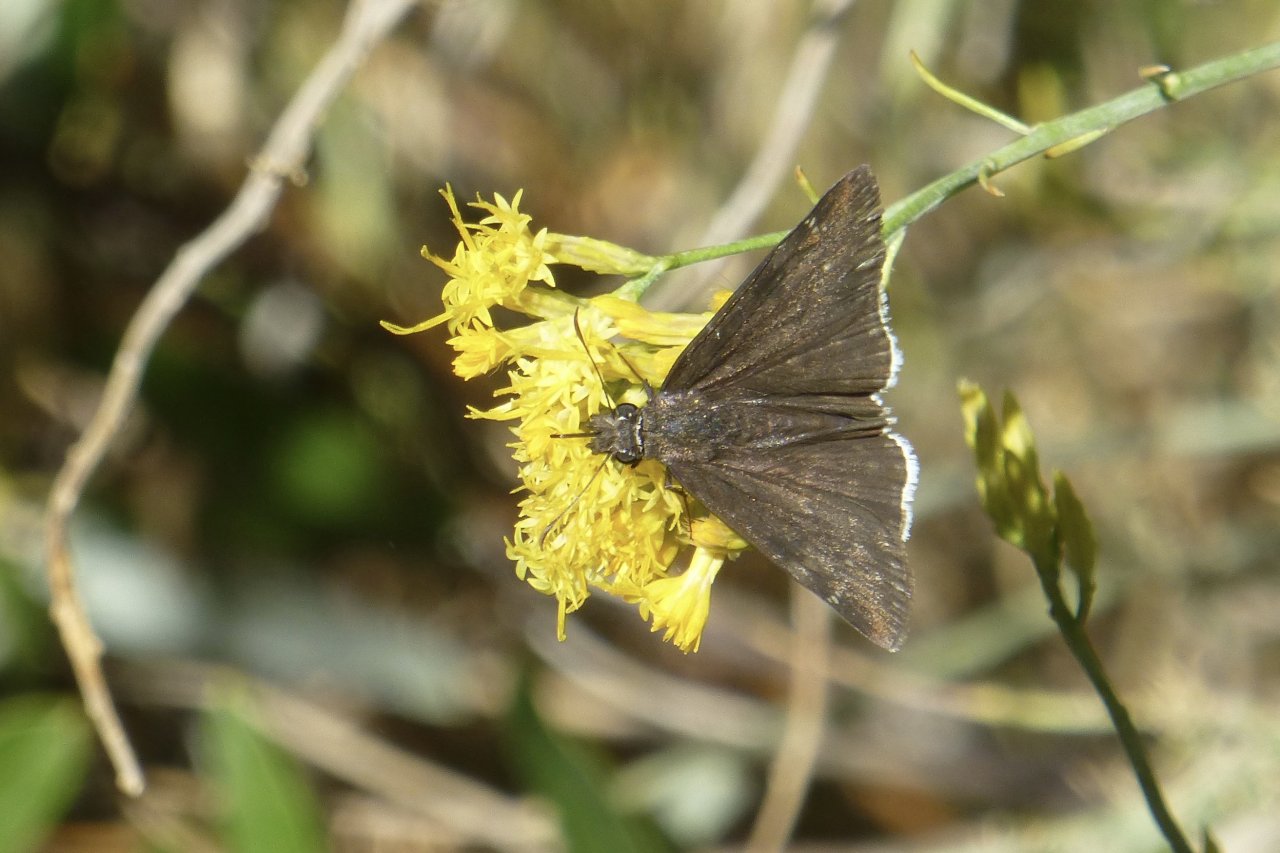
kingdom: Animalia
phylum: Arthropoda
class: Insecta
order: Lepidoptera
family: Hesperiidae
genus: Erynnis
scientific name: Erynnis
